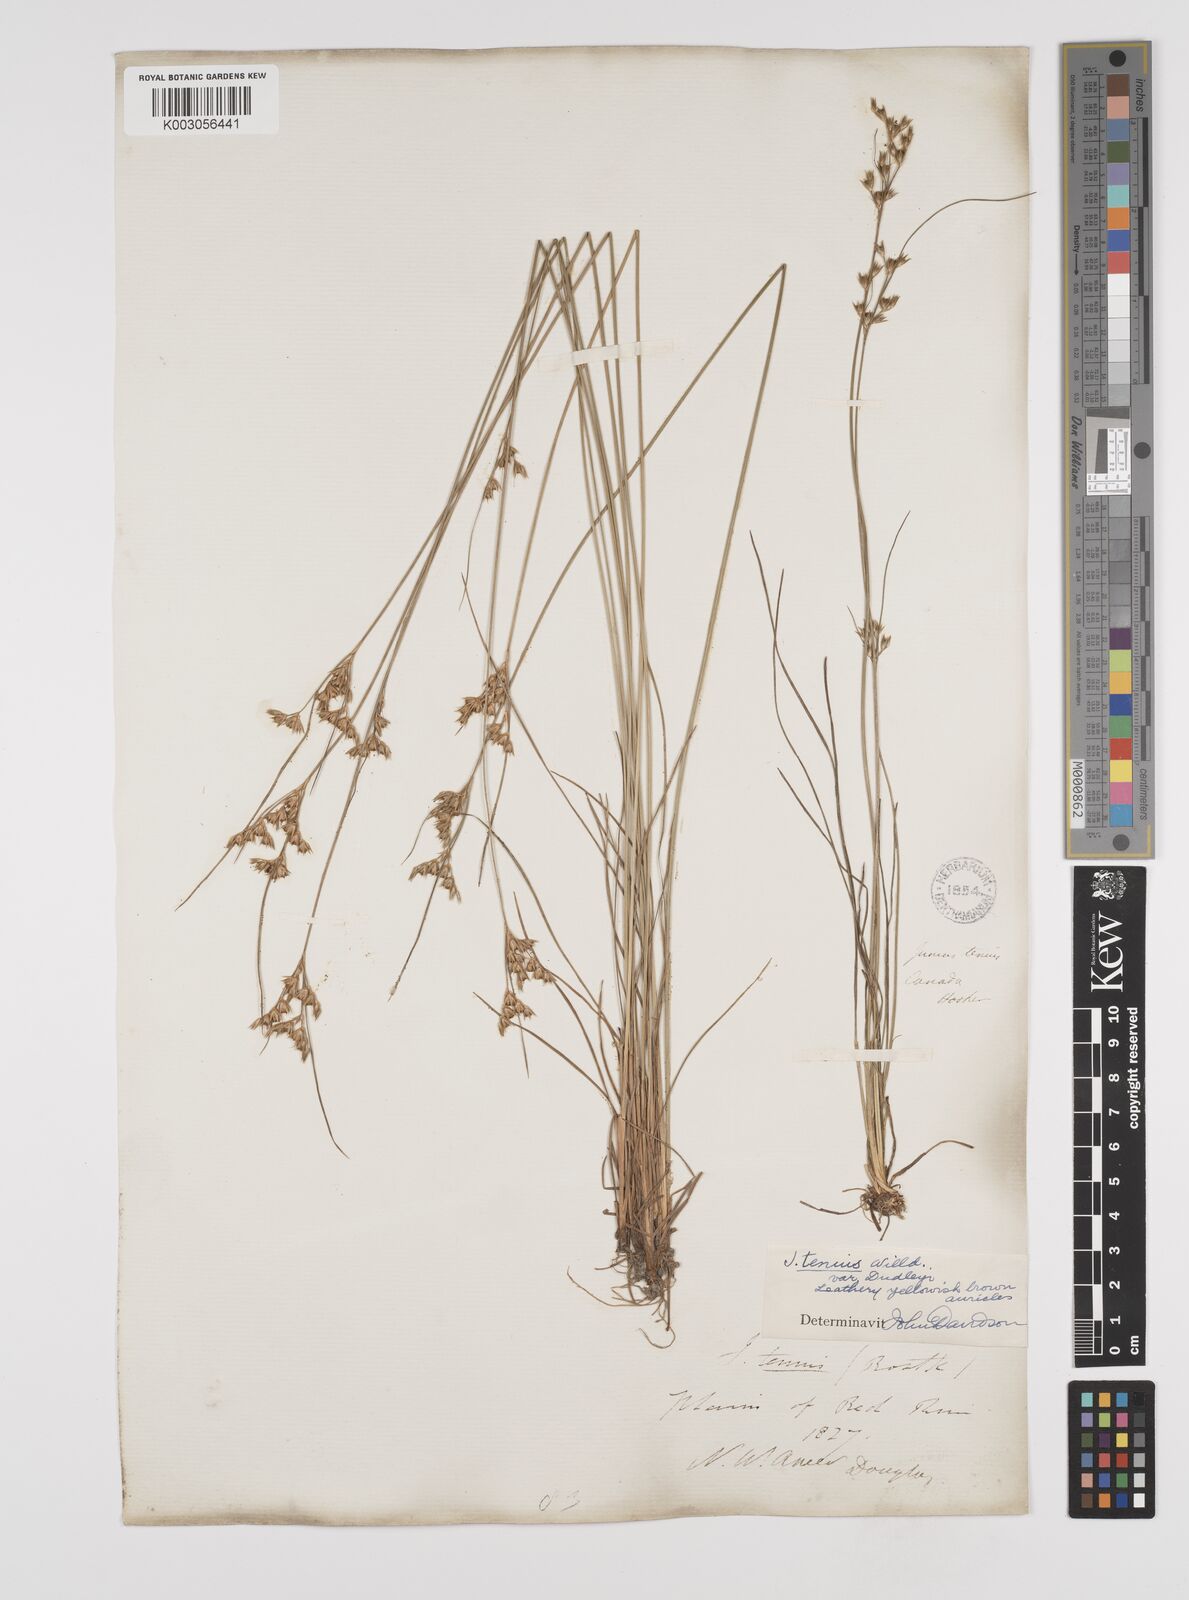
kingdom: Plantae
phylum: Tracheophyta
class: Liliopsida
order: Poales
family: Juncaceae
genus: Juncus
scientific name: Juncus dudleyi
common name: Dudley's rush
